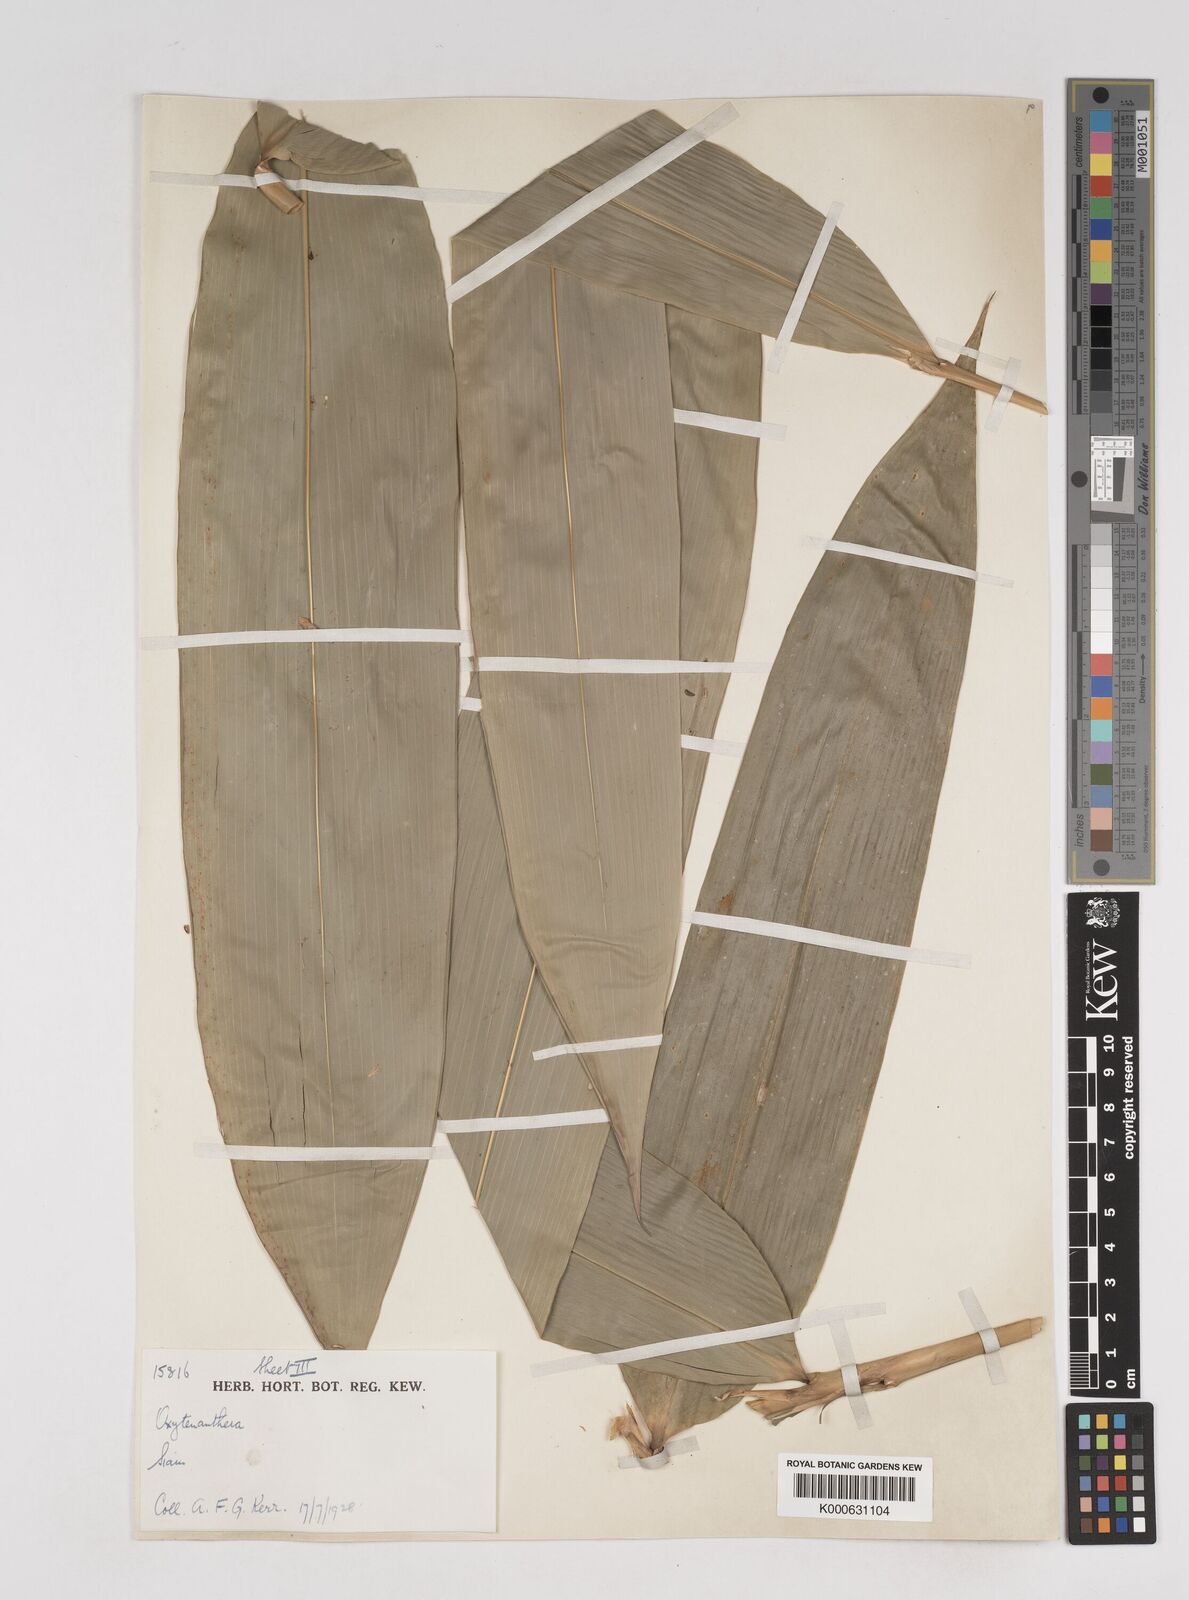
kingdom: Plantae
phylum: Tracheophyta
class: Liliopsida
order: Poales
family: Poaceae
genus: Gigantochloa
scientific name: Gigantochloa ligulata
